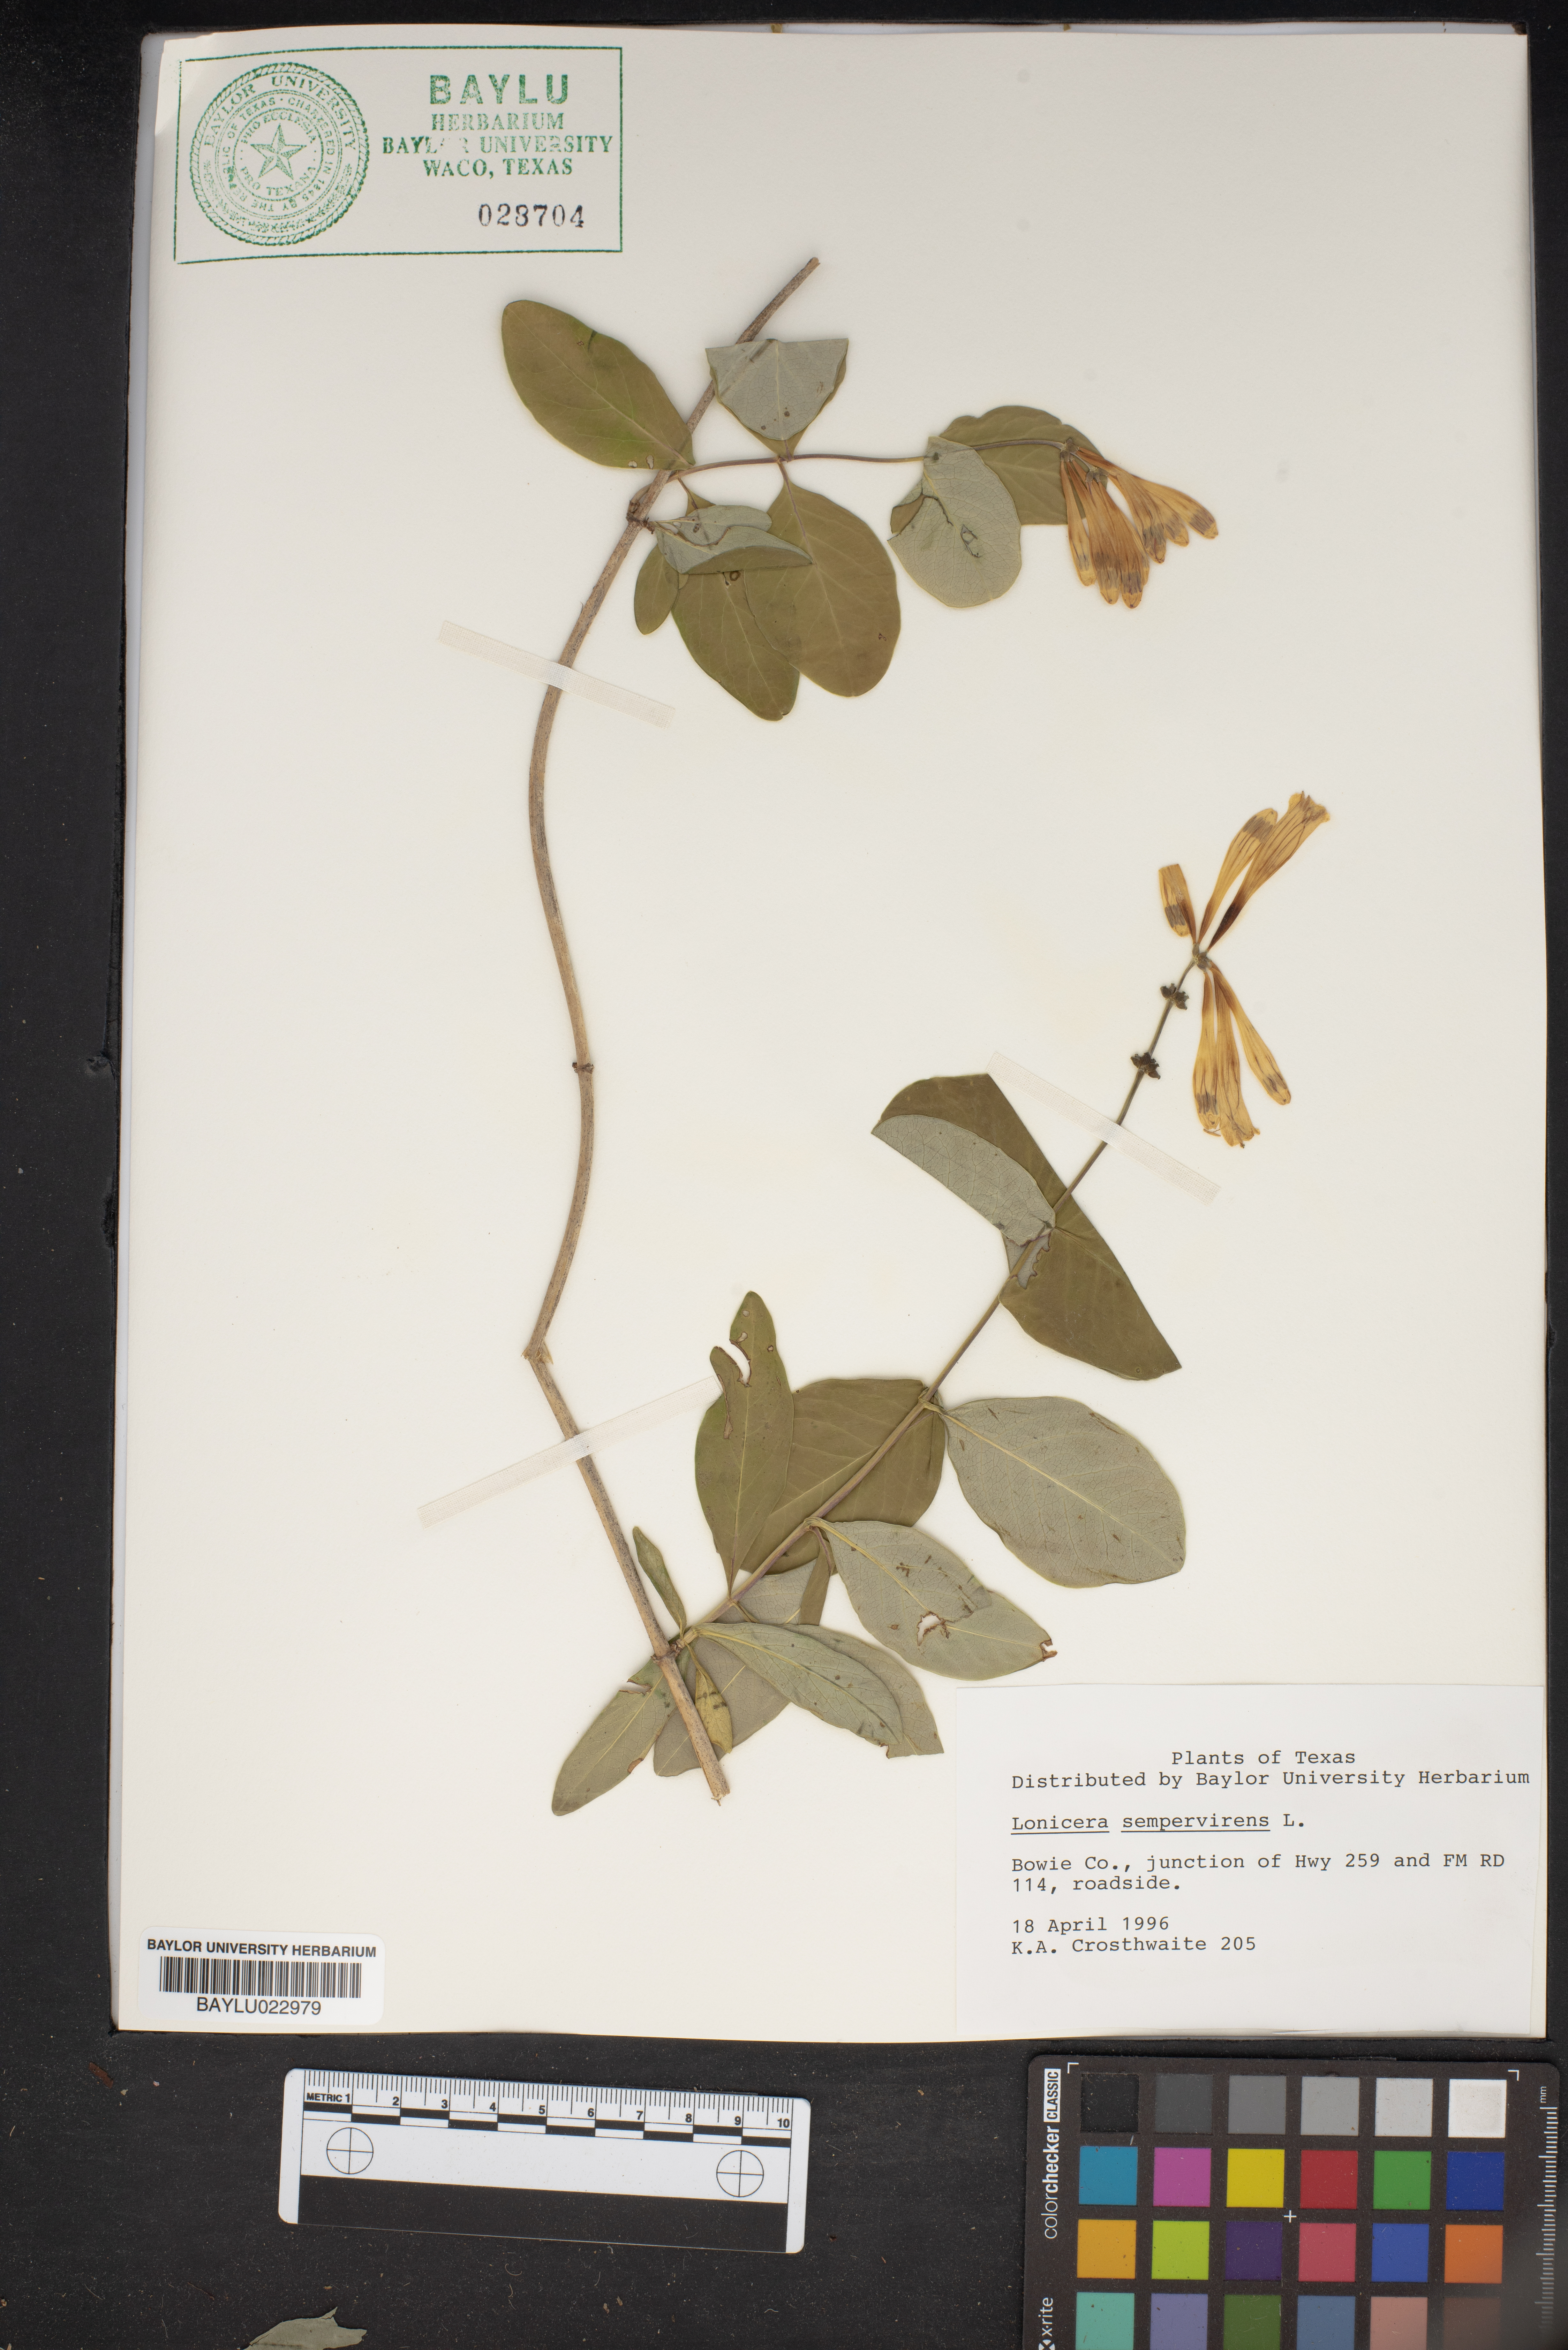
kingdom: Plantae
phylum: Tracheophyta
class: Magnoliopsida
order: Dipsacales
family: Caprifoliaceae
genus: Lonicera
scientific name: Lonicera sempervirens
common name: Coral honeysuckle
